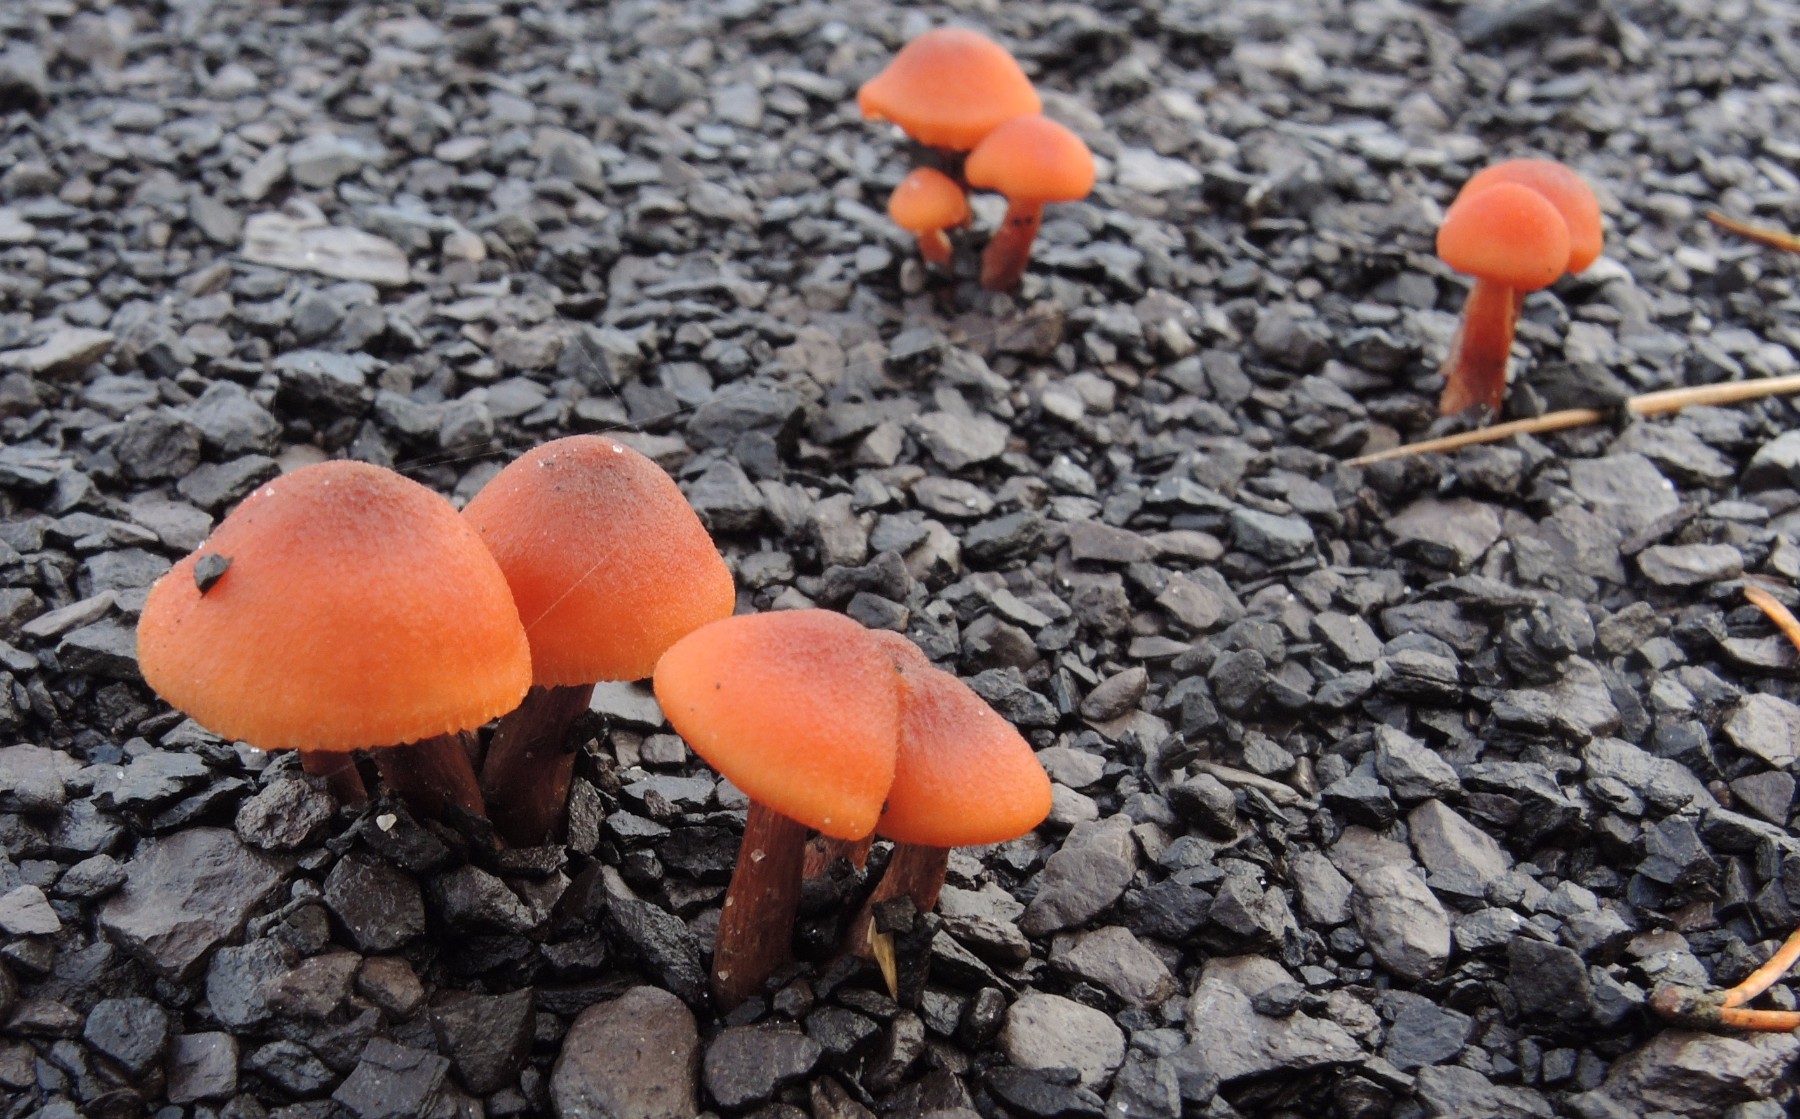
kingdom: Fungi
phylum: Basidiomycota
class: Agaricomycetes
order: Agaricales
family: Hydnangiaceae
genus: Laccaria
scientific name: Laccaria laccata
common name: rød ametysthat
